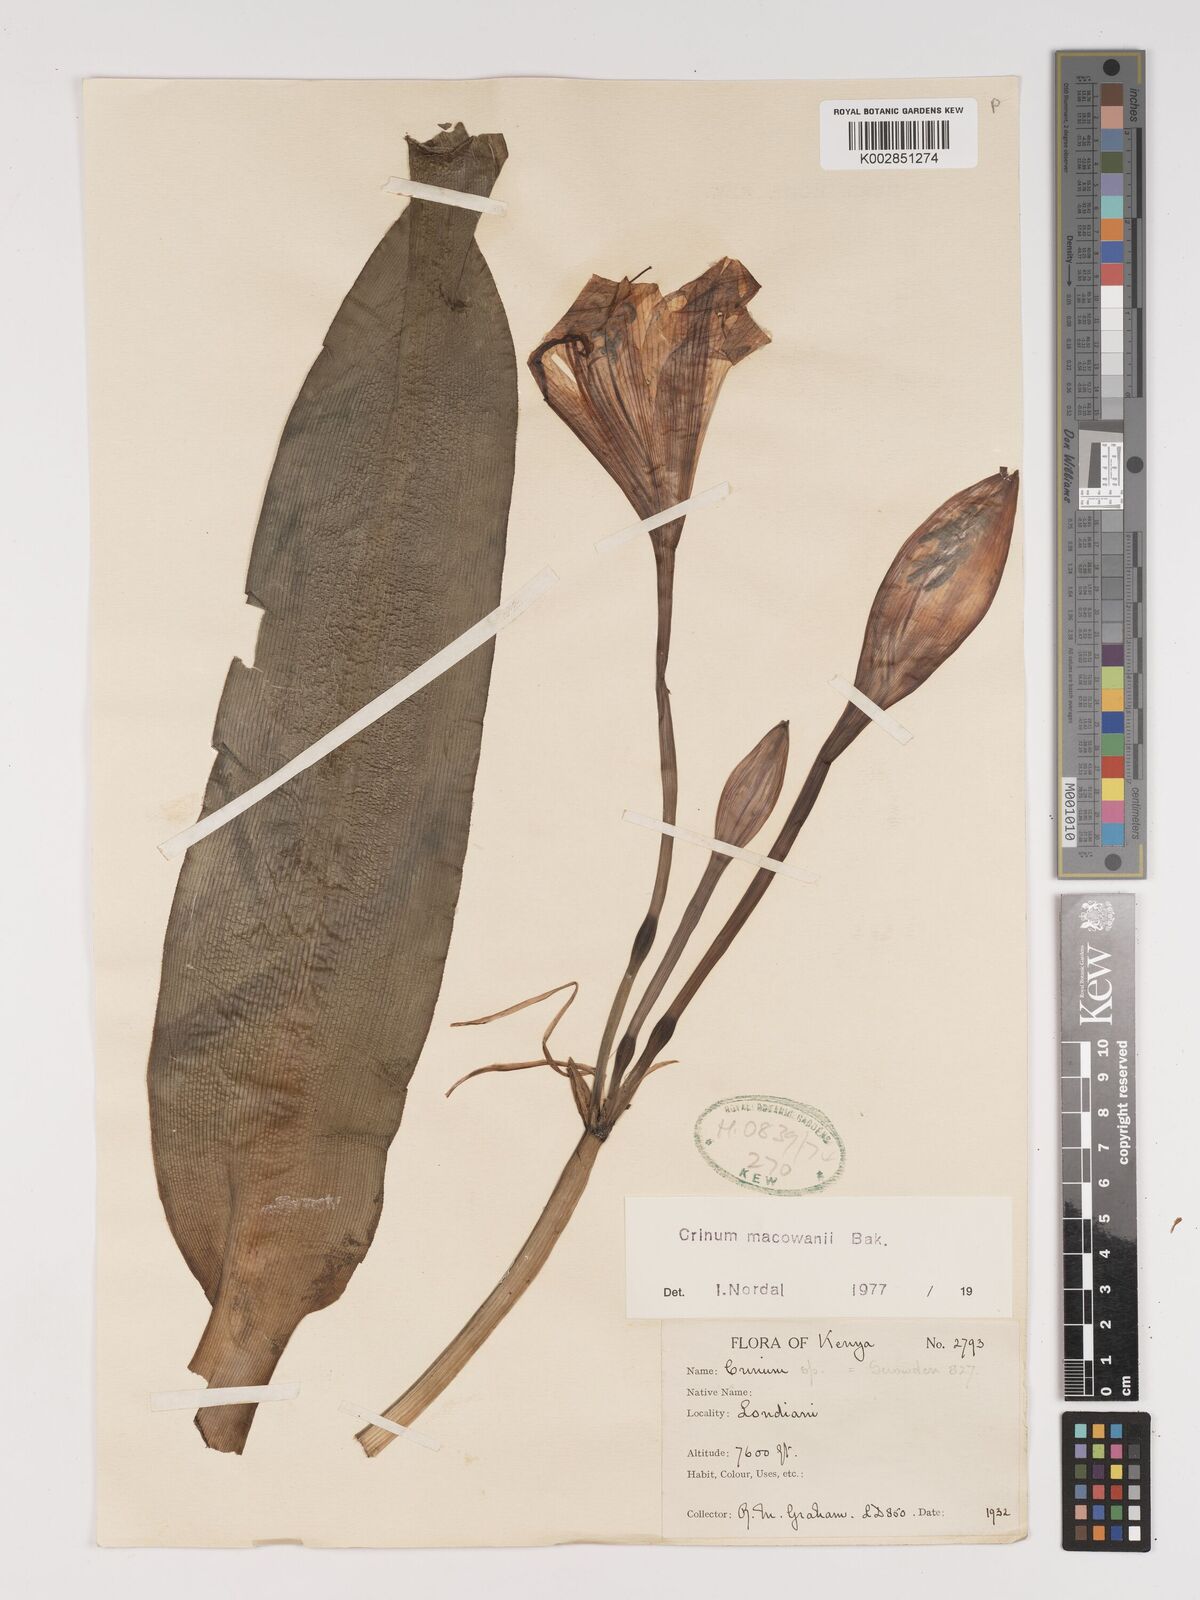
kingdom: Plantae
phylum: Tracheophyta
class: Liliopsida
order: Asparagales
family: Amaryllidaceae
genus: Crinum
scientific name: Crinum macowanii
